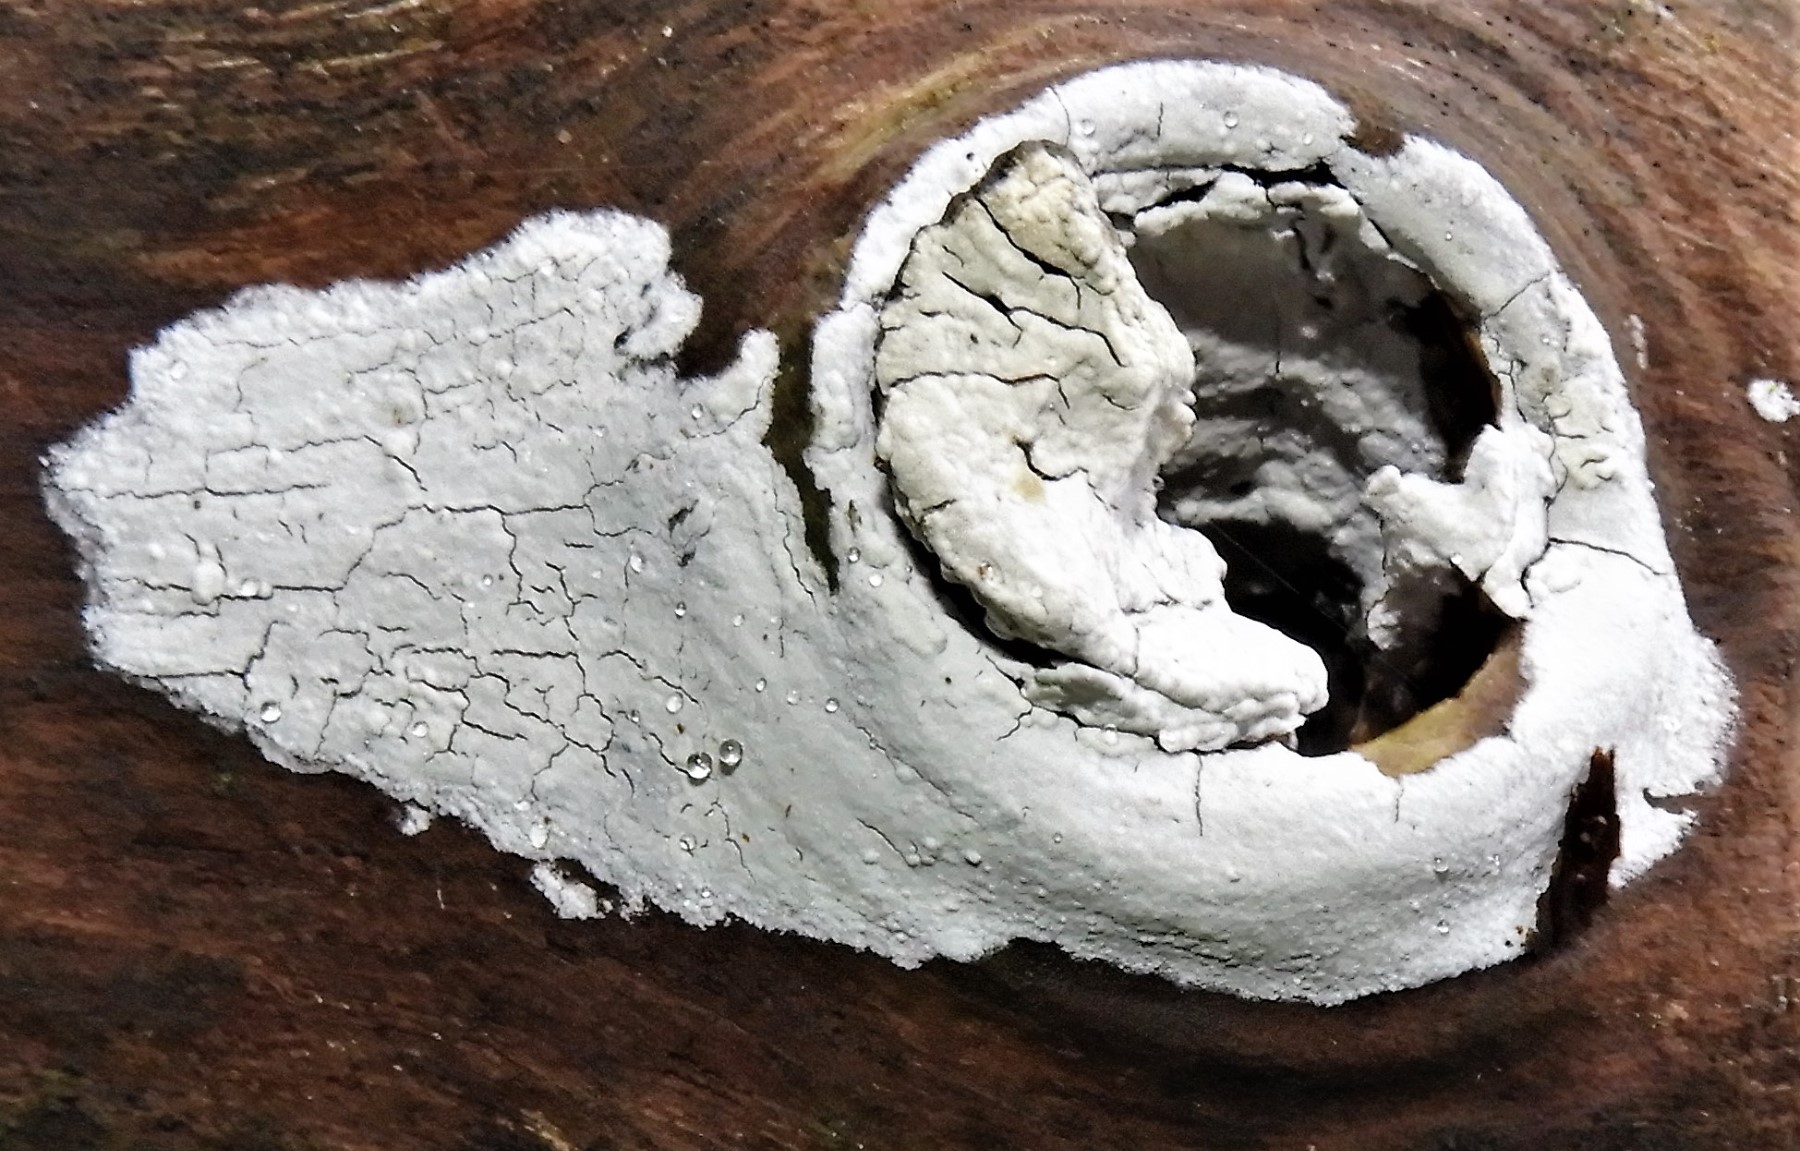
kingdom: Fungi
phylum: Basidiomycota
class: Agaricomycetes
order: Corticiales
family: Corticiaceae
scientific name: Corticiaceae
